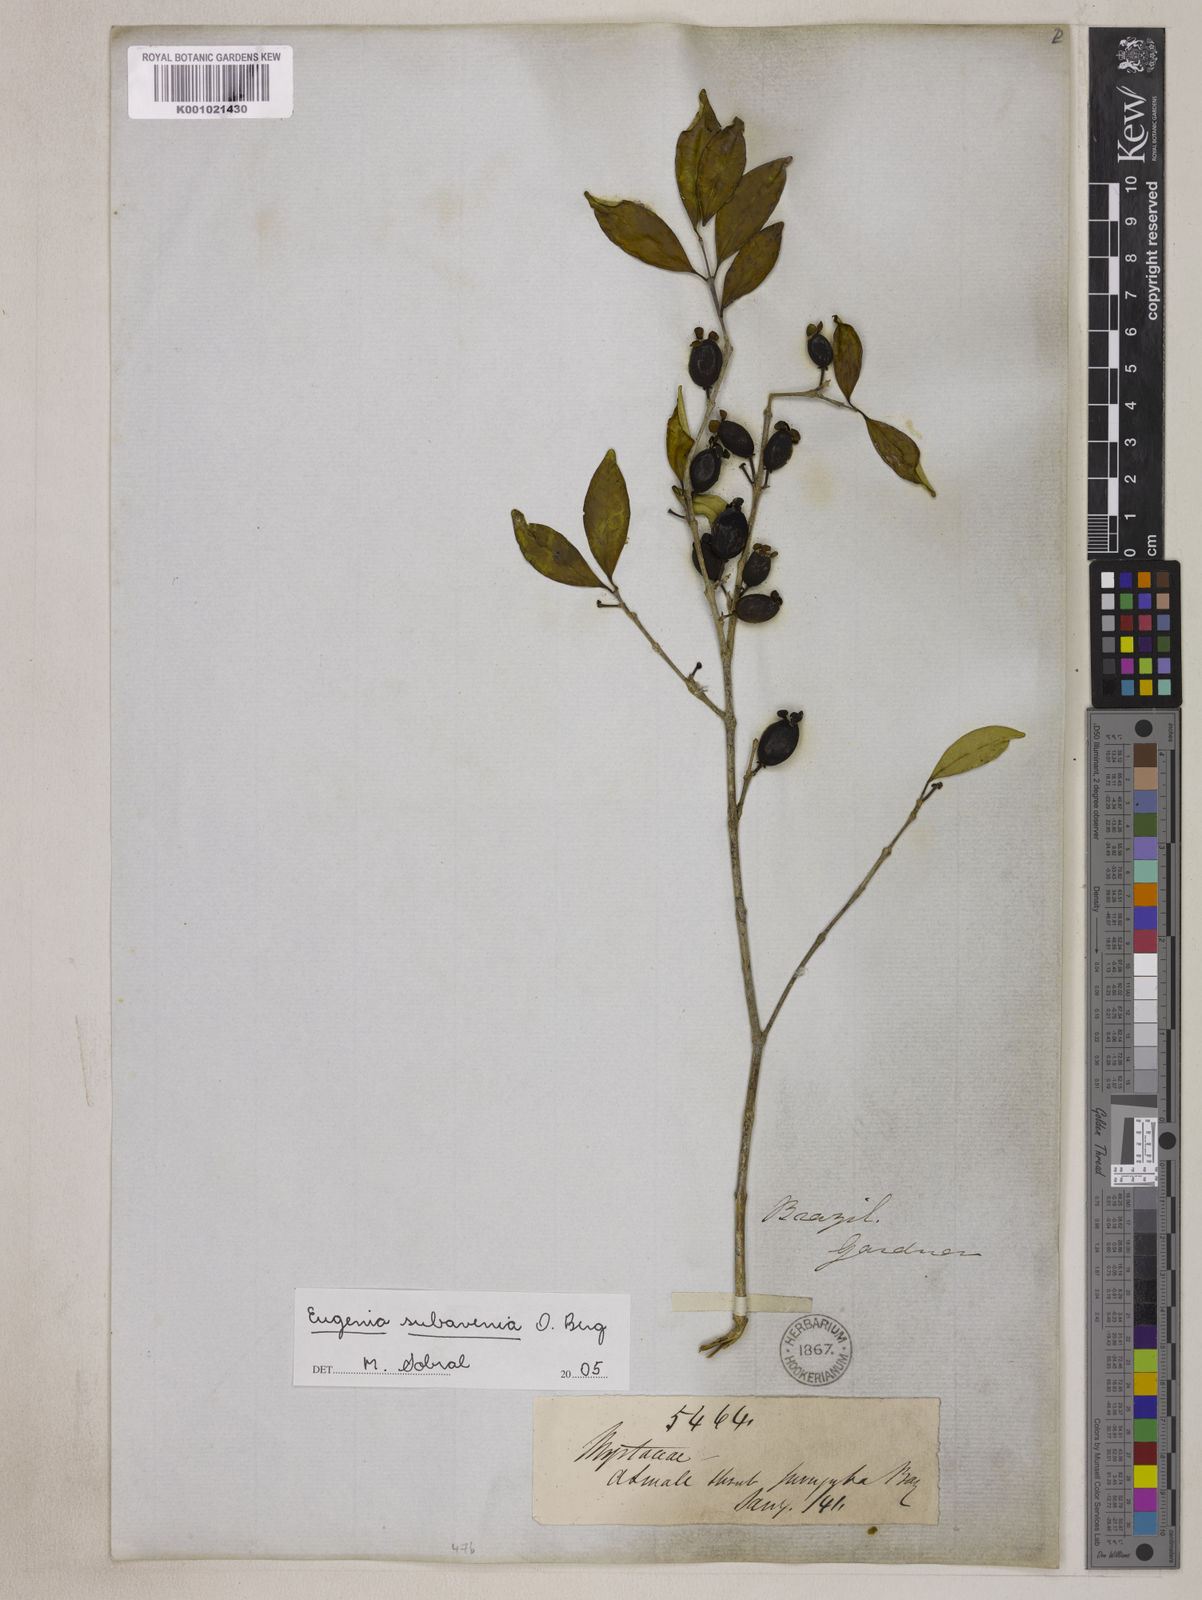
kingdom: Plantae
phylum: Tracheophyta
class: Magnoliopsida
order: Myrtales
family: Myrtaceae
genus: Eugenia
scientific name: Eugenia subavenia
